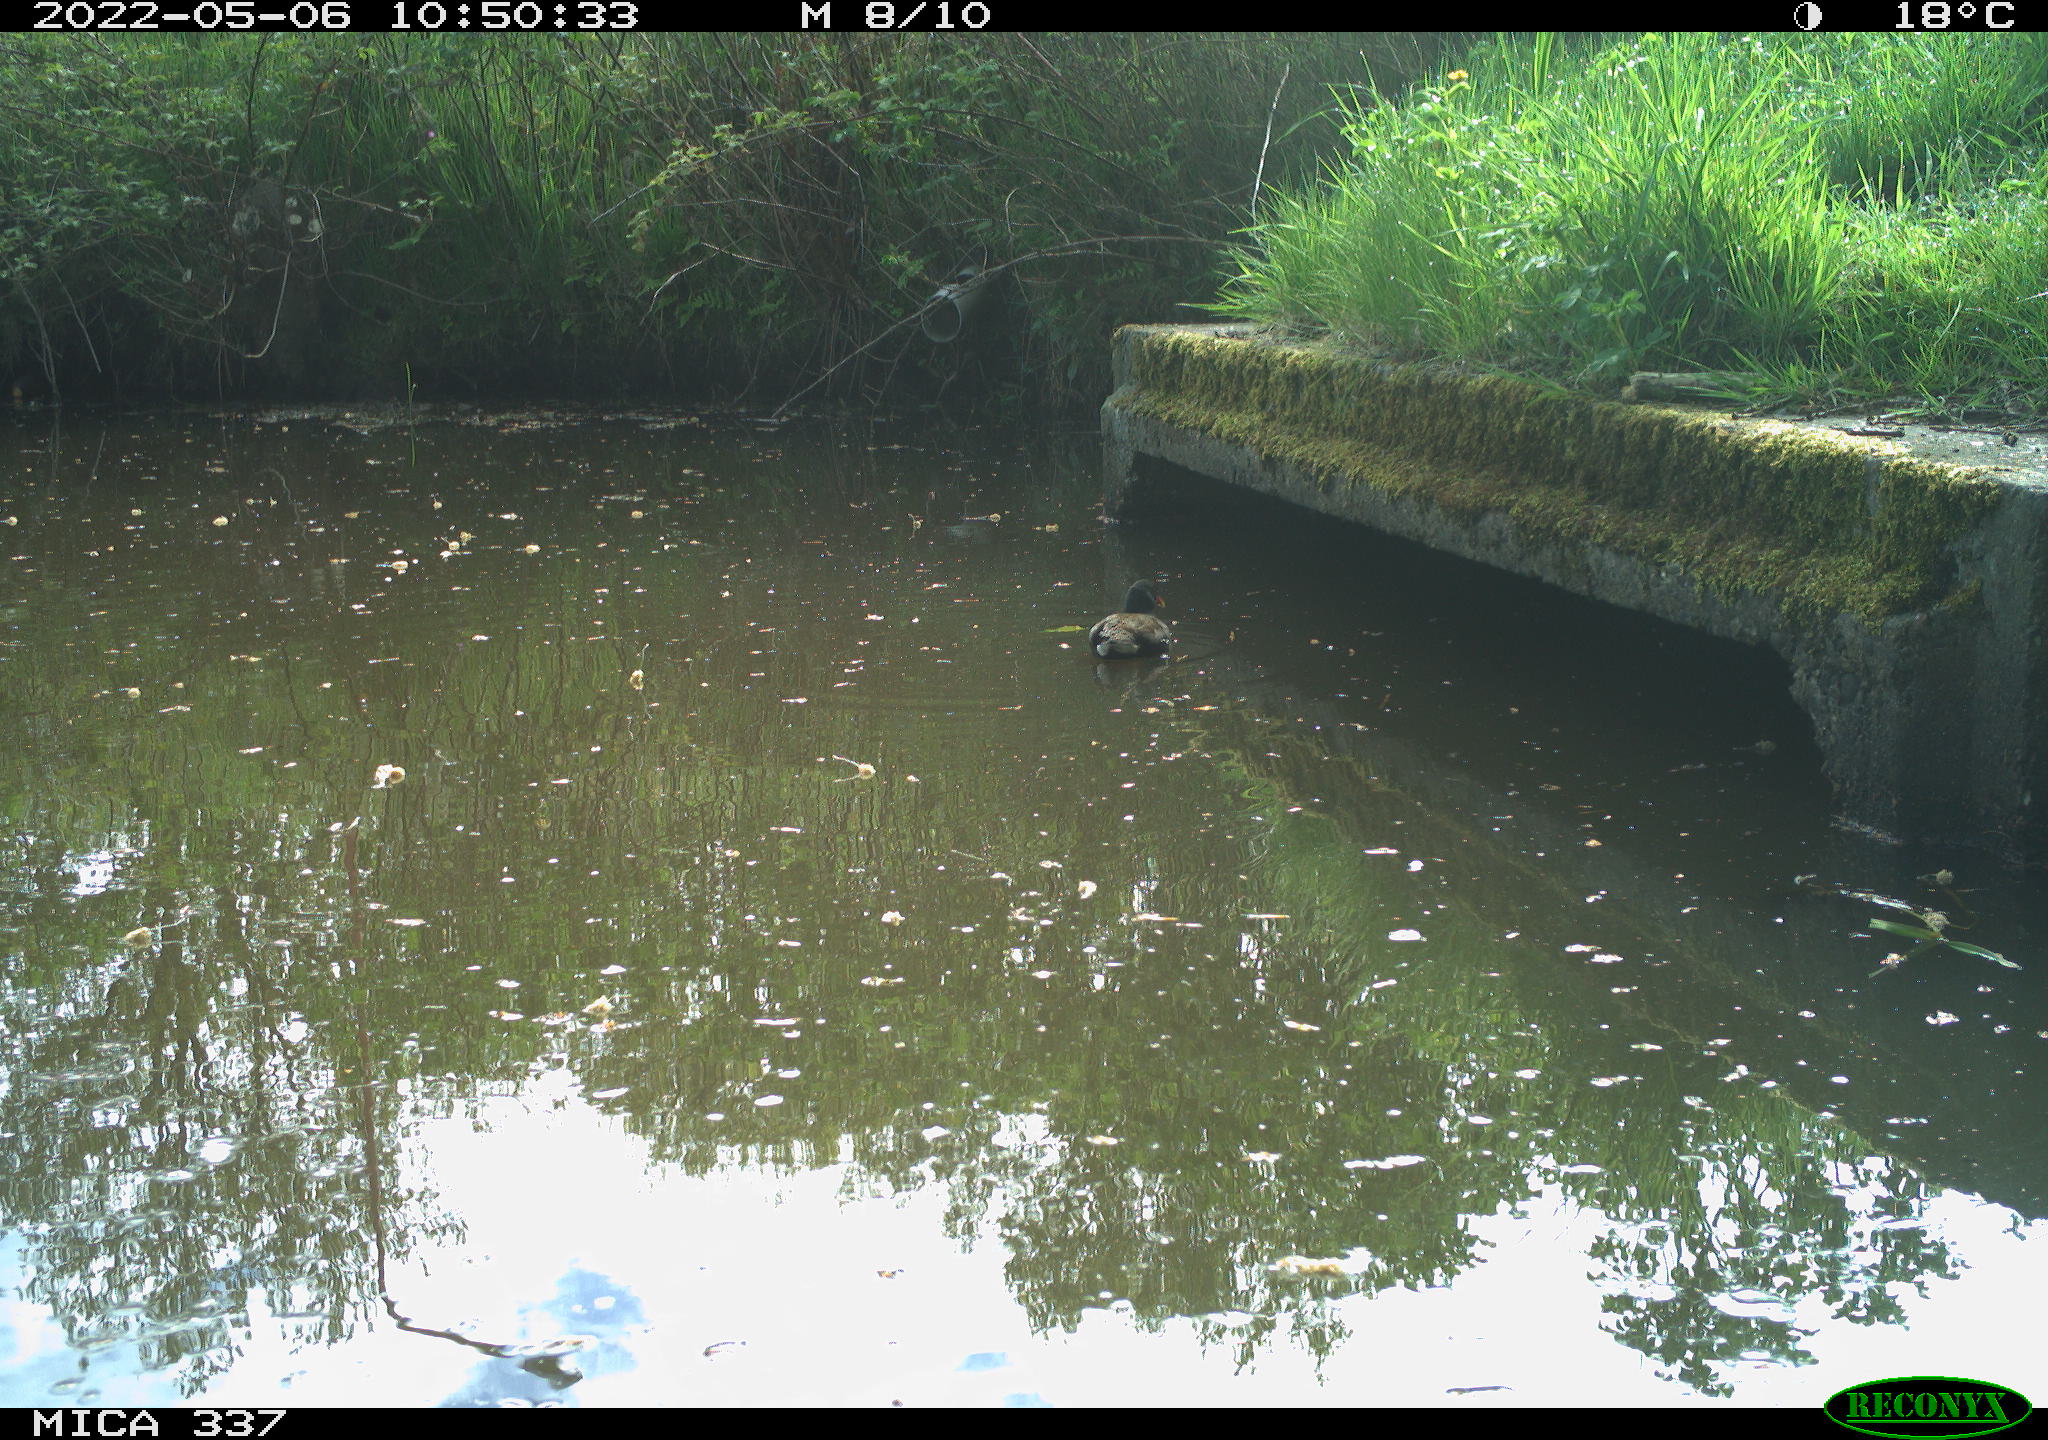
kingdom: Animalia
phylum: Chordata
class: Aves
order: Gruiformes
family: Rallidae
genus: Gallinula
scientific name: Gallinula chloropus
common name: Common moorhen
